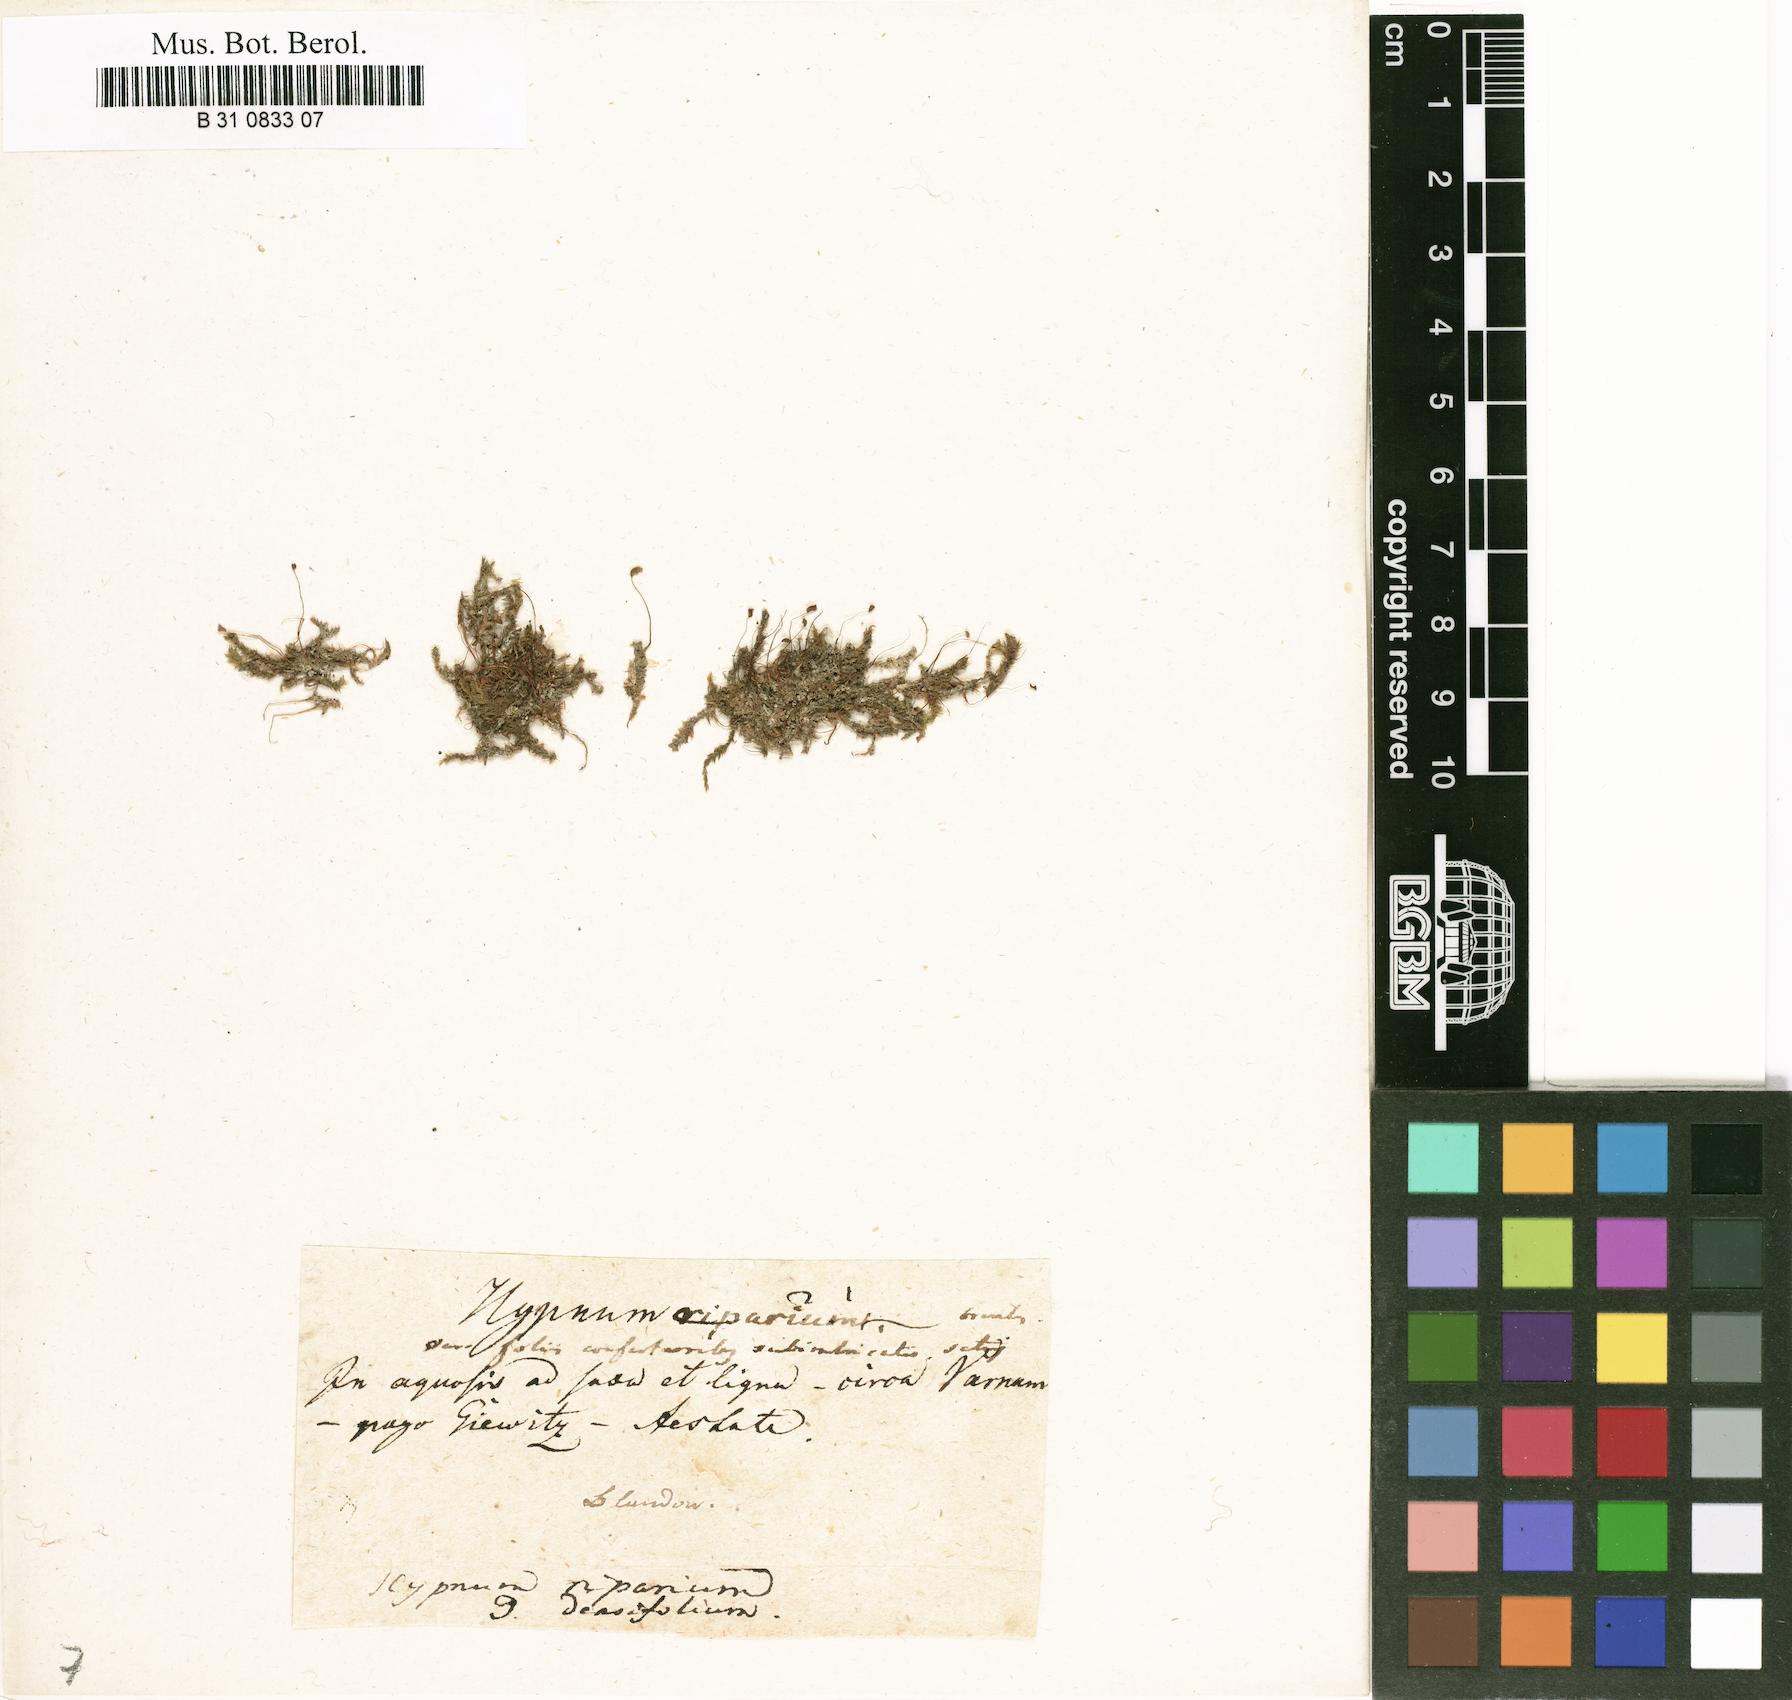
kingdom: Plantae
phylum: Bryophyta
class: Bryopsida
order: Hypnales
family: Amblystegiaceae
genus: Leptodictyum
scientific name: Leptodictyum riparium
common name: Riparian feather moss
